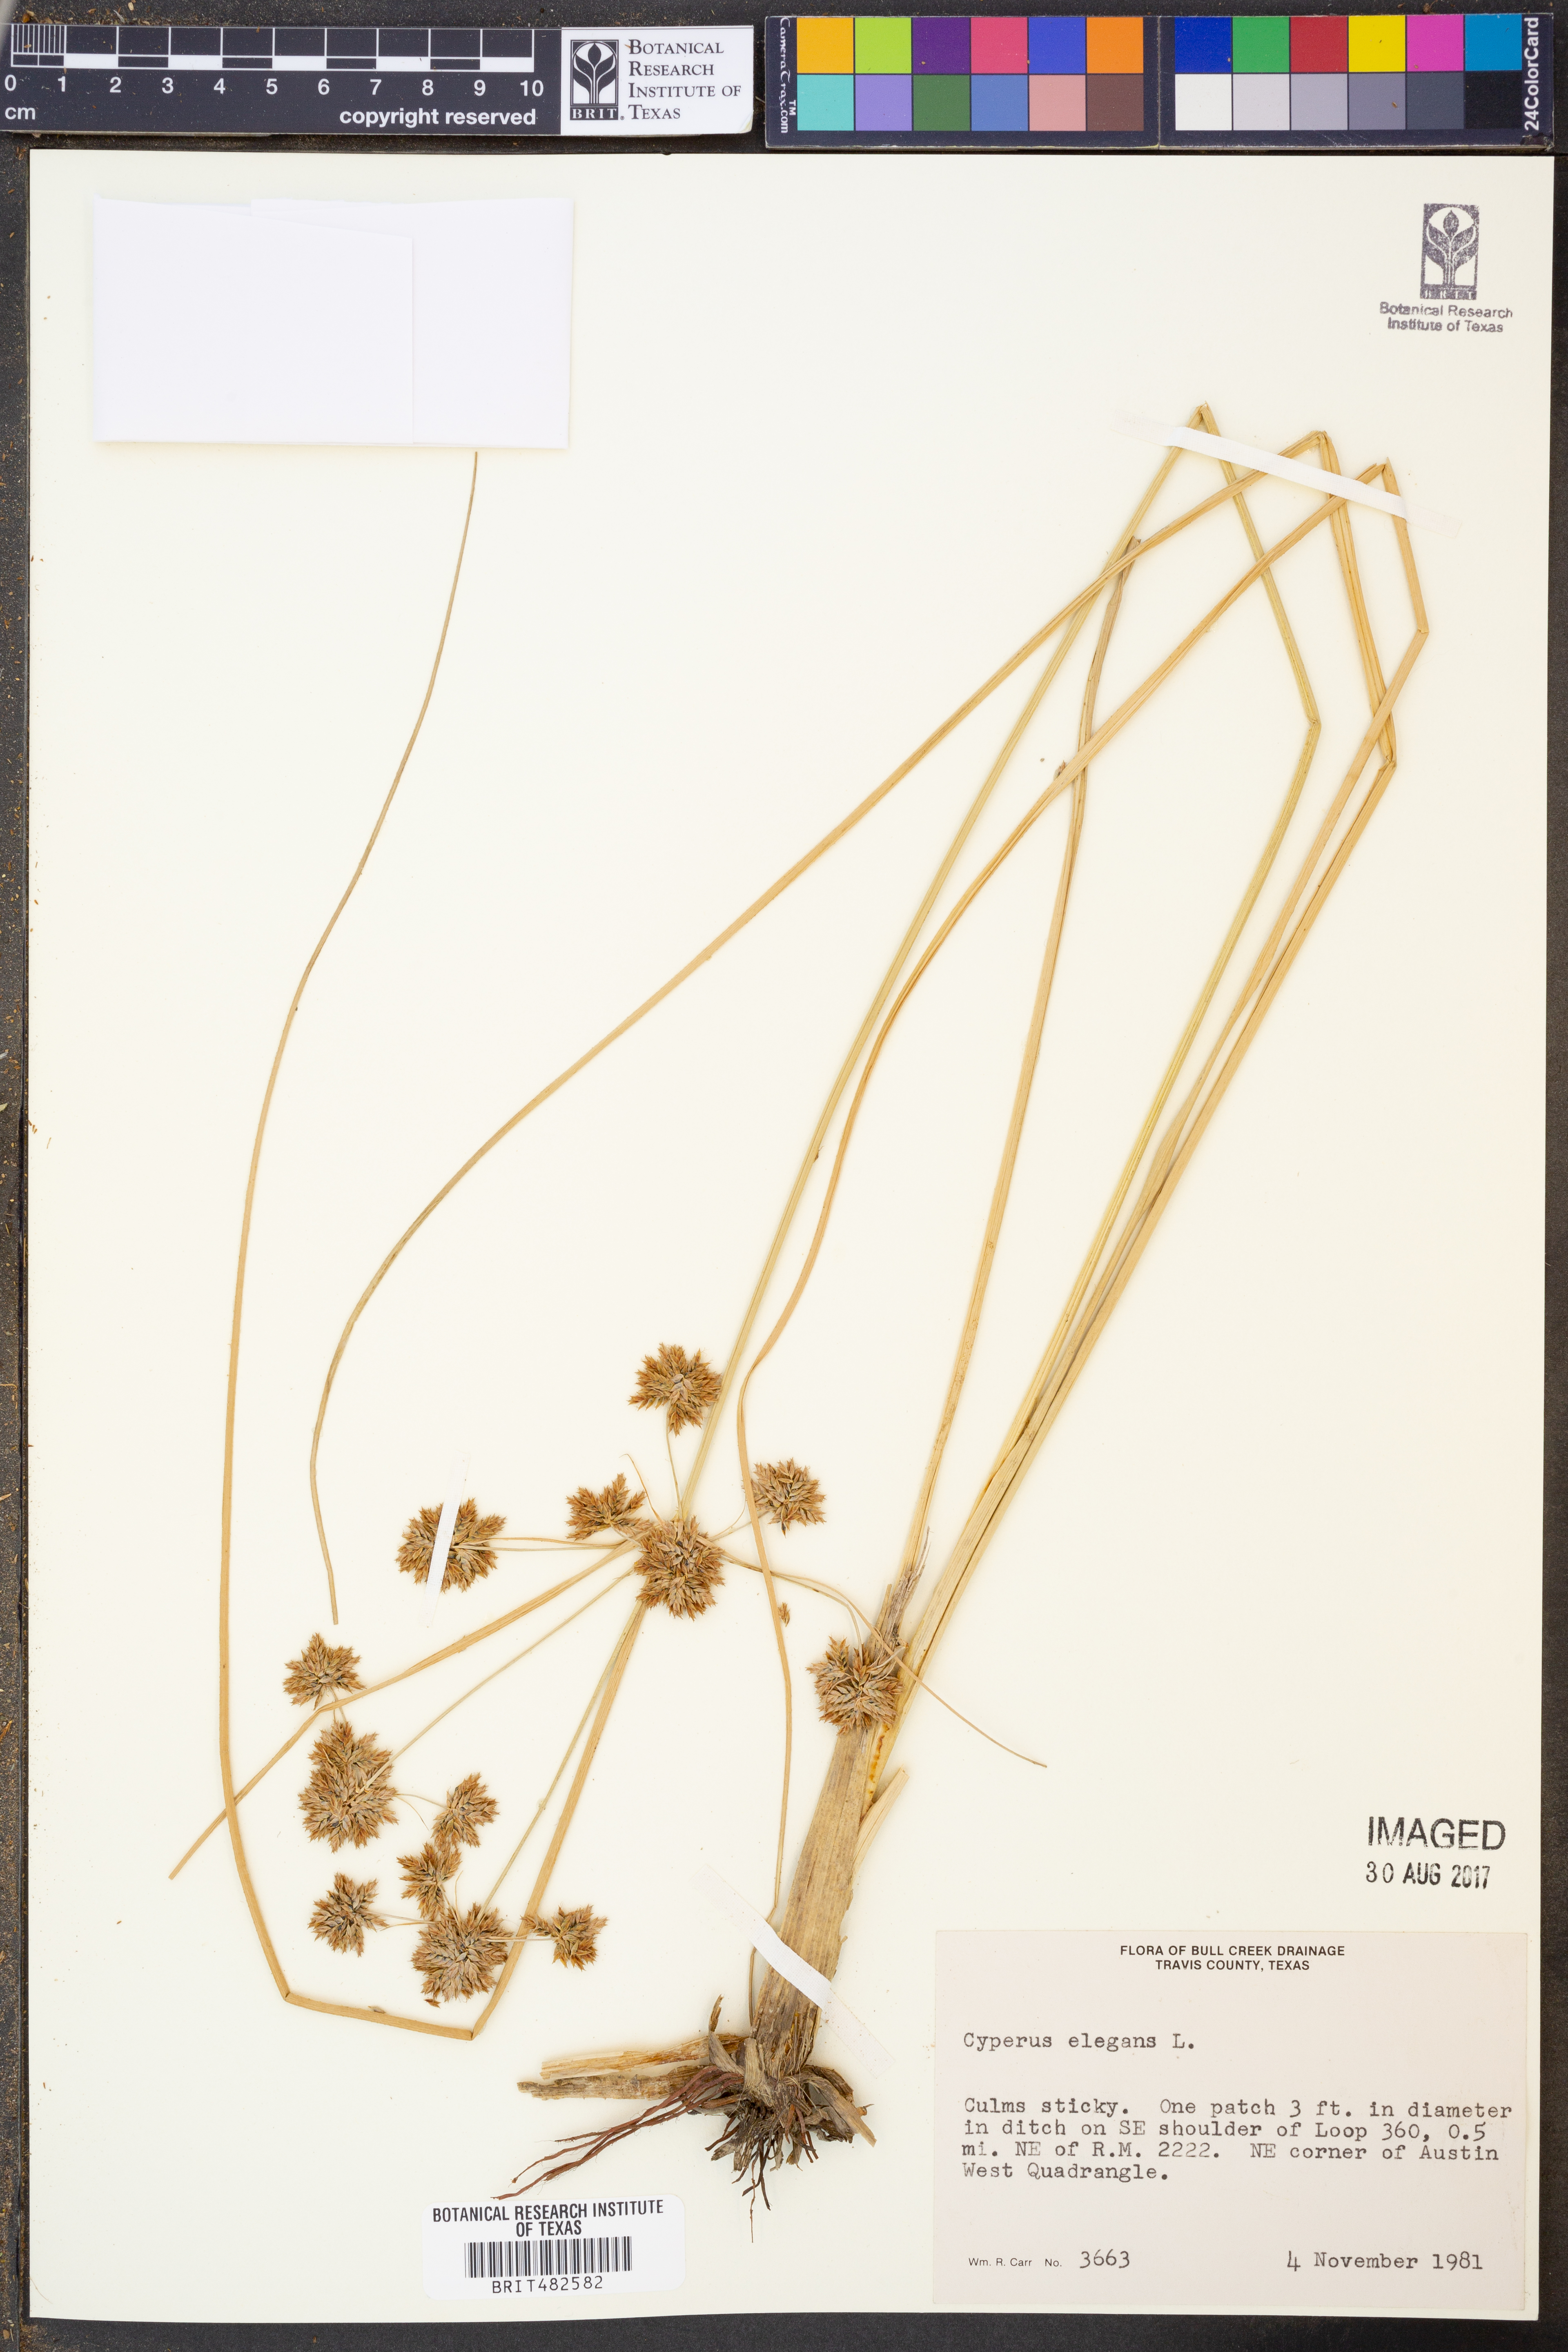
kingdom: Plantae
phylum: Tracheophyta
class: Liliopsida
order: Poales
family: Cyperaceae
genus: Cyperus
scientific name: Cyperus elegans
